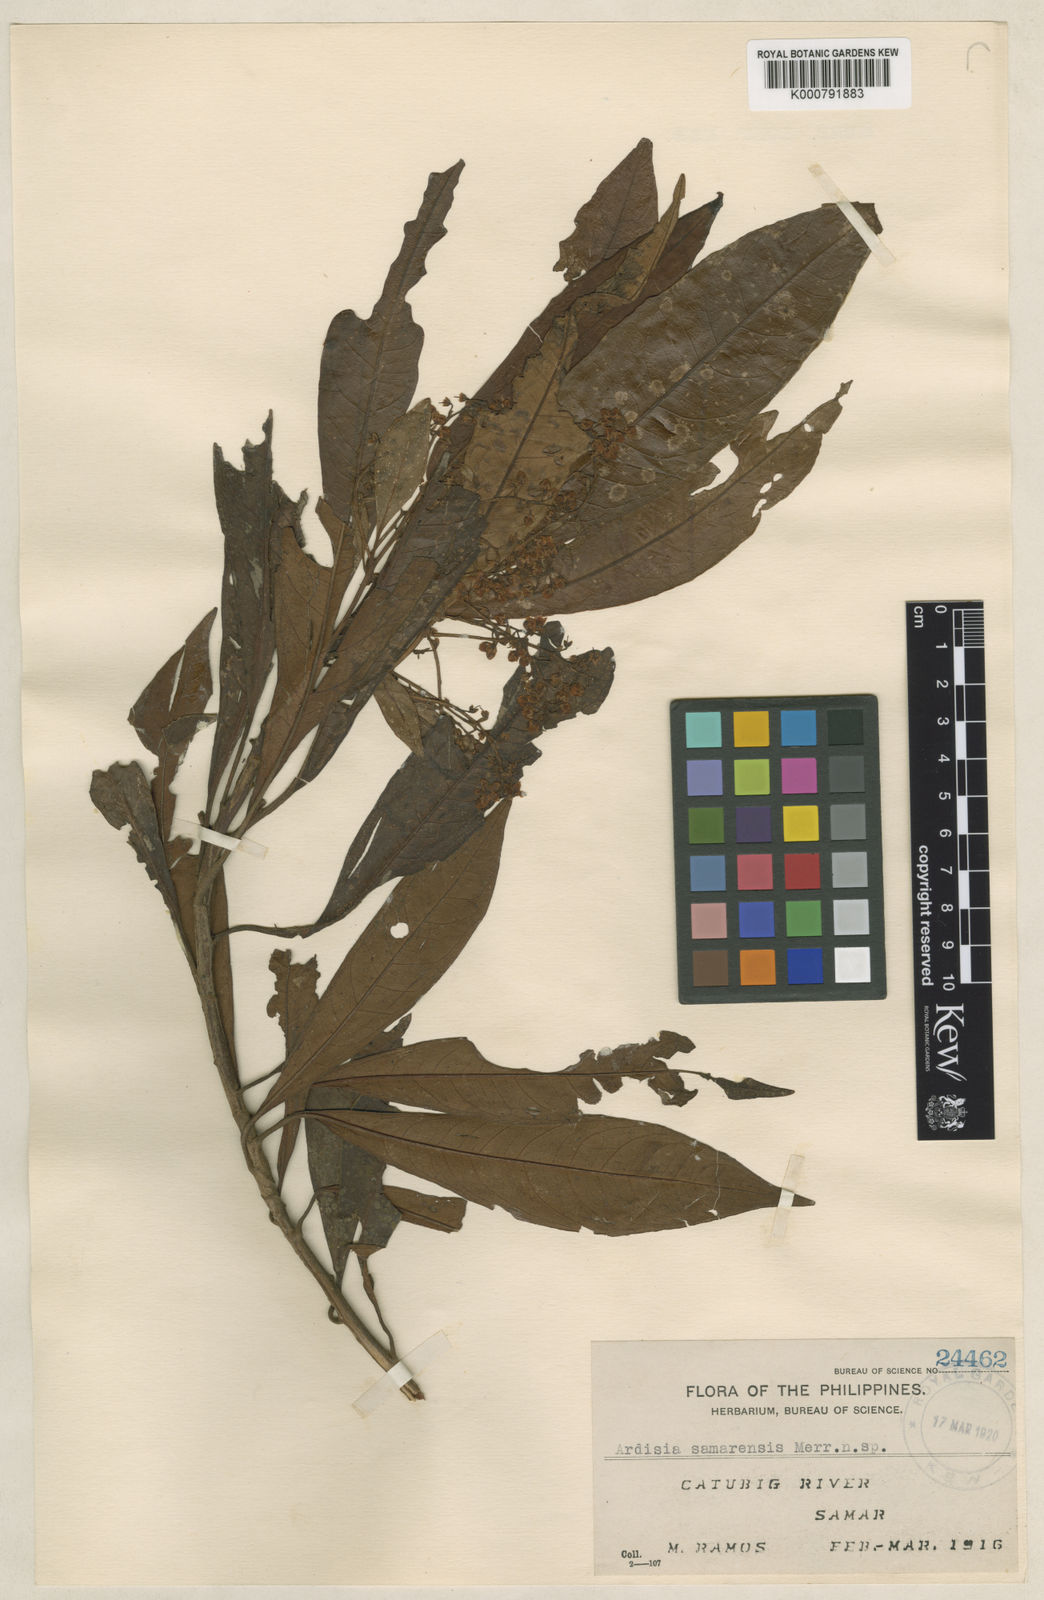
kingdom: Plantae
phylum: Tracheophyta
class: Magnoliopsida
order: Ericales
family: Primulaceae
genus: Ardisia
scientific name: Ardisia samarensis
